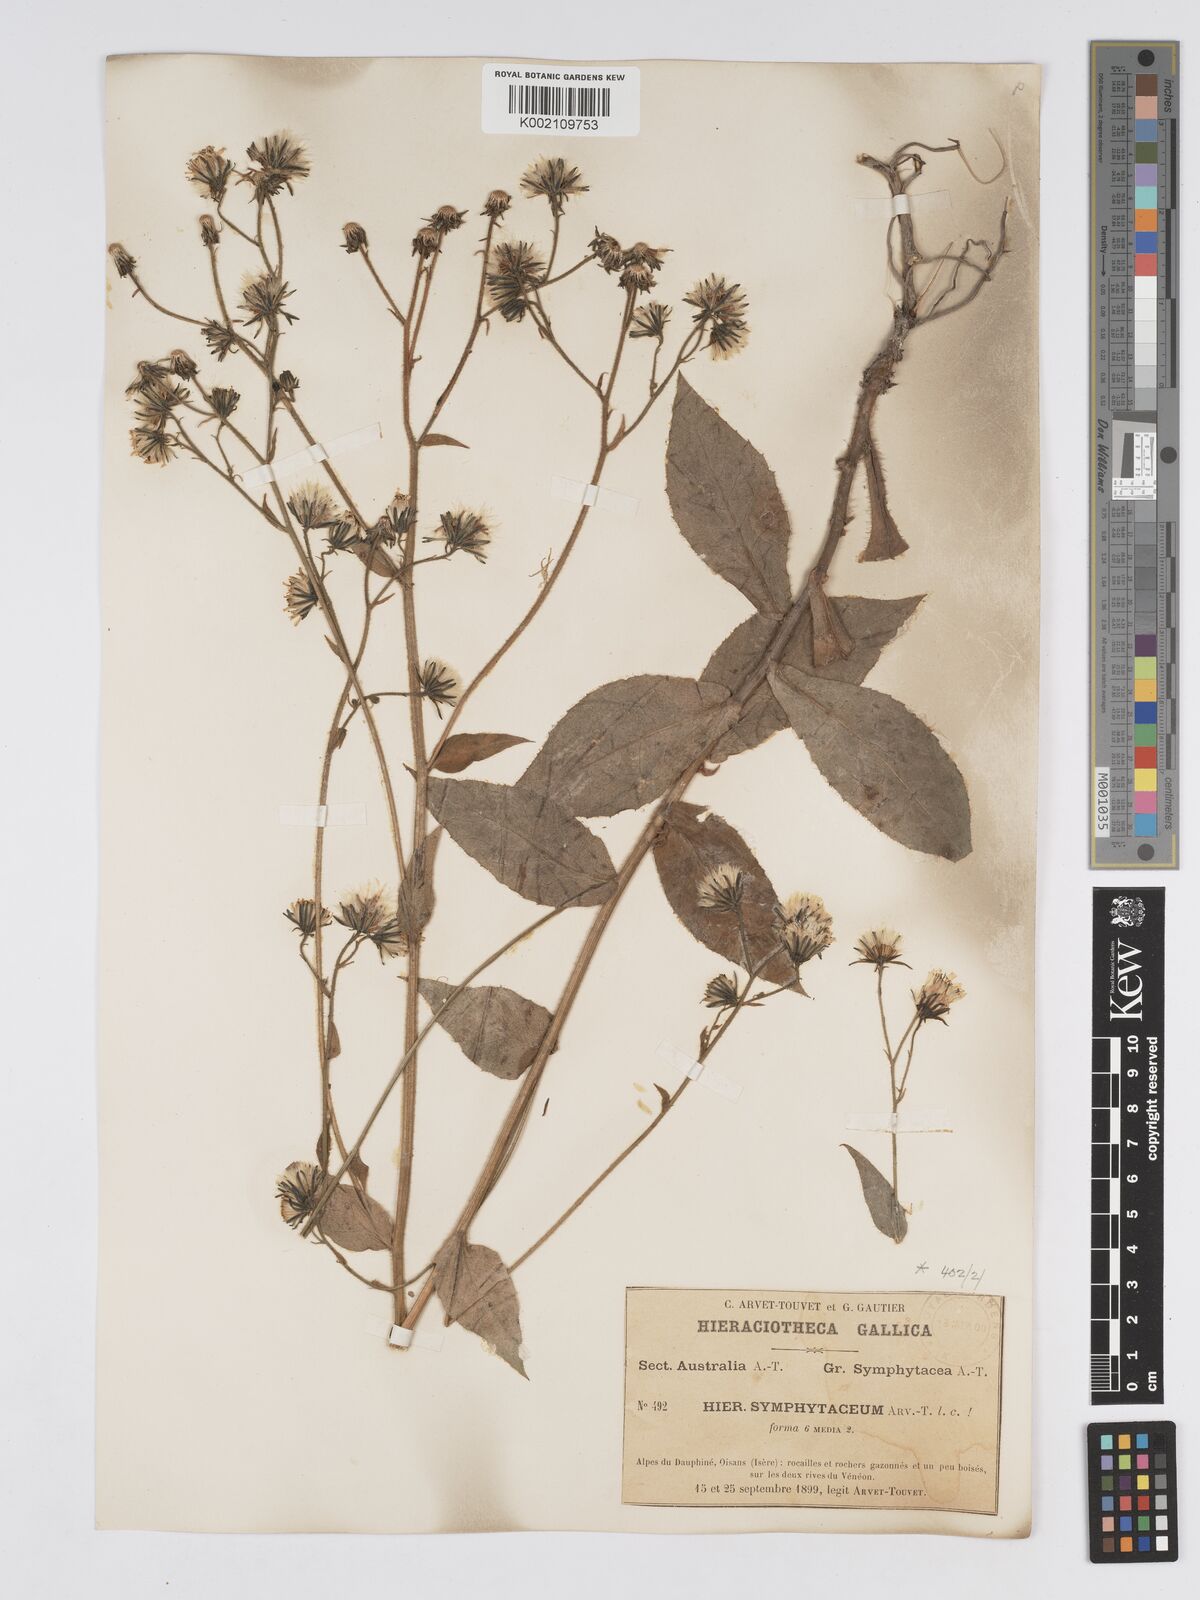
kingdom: Plantae
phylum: Tracheophyta
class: Magnoliopsida
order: Asterales
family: Asteraceae
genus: Hieracium
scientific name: Hieracium symphytaceum
